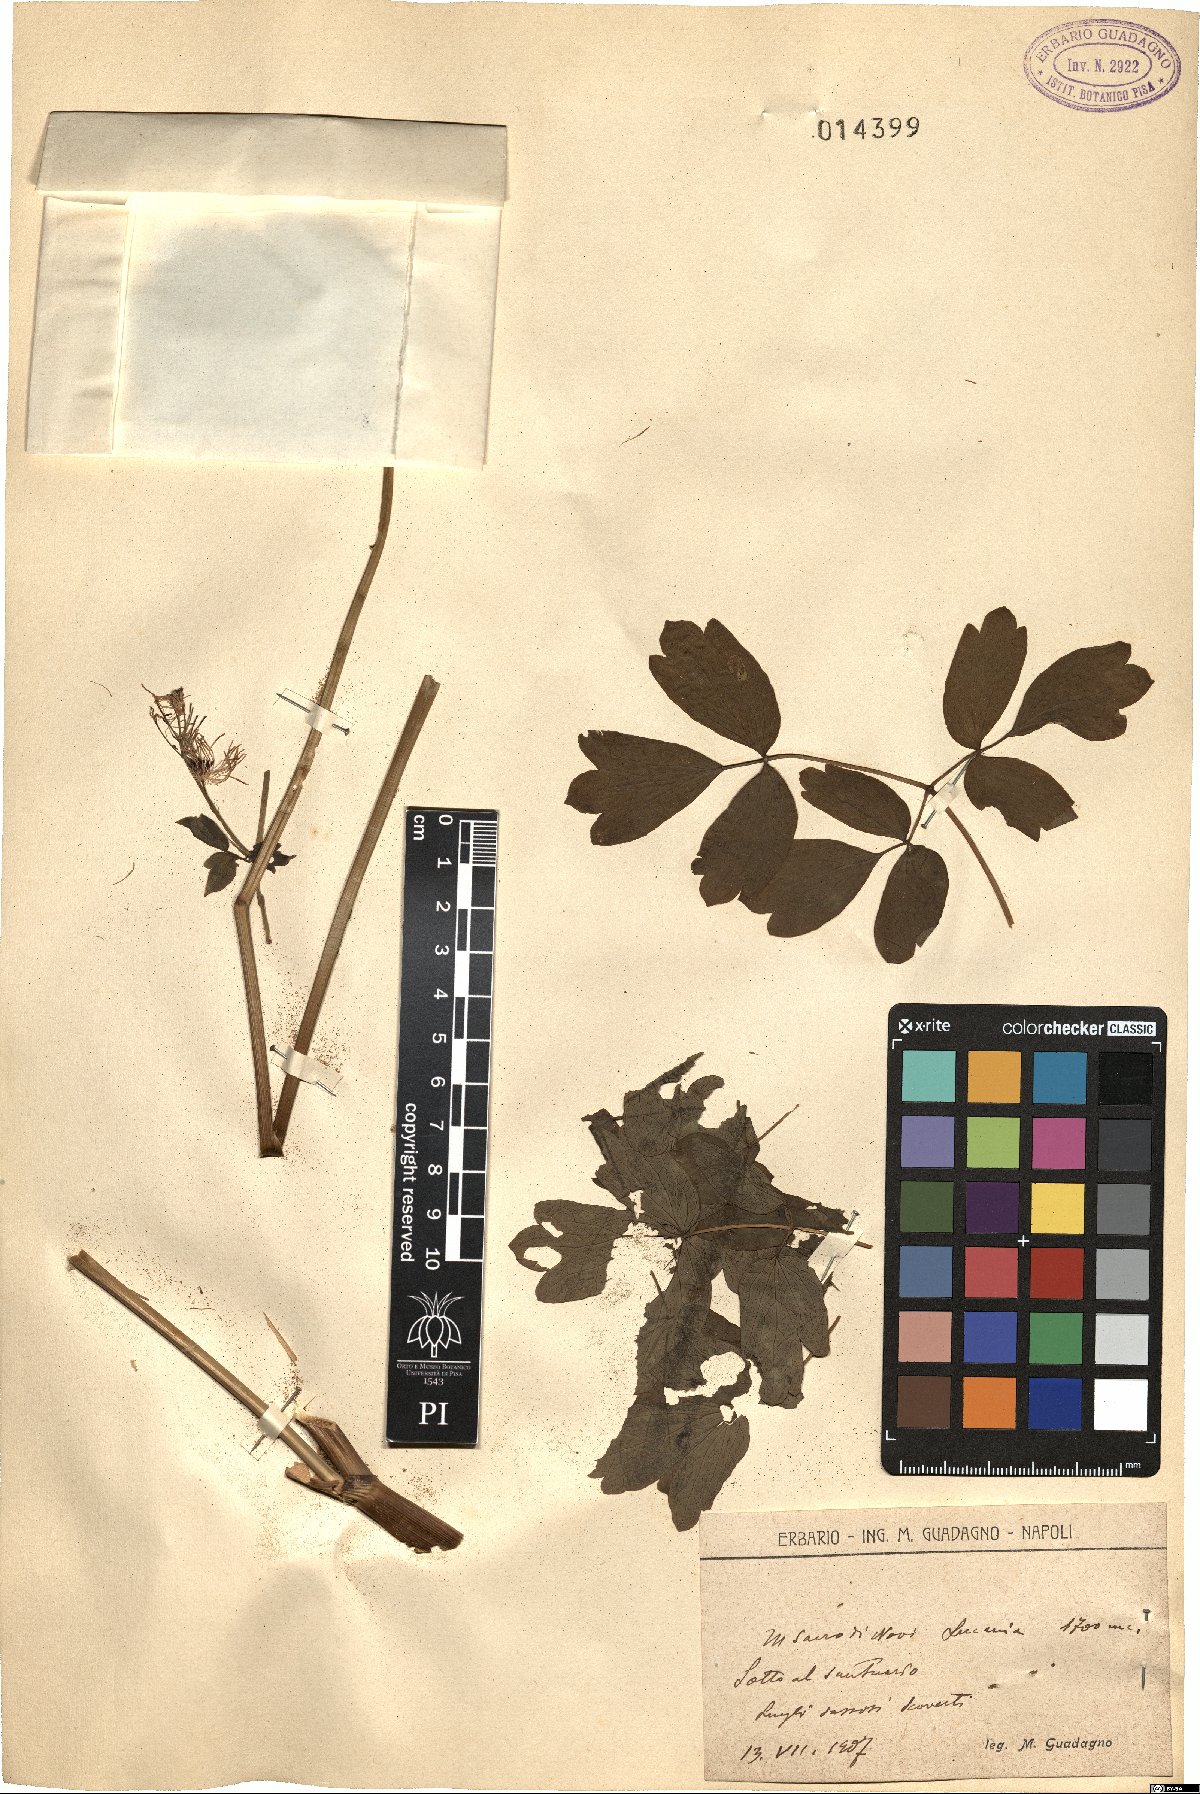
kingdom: Plantae
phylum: Tracheophyta
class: Magnoliopsida
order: Ranunculales
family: Ranunculaceae
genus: Thalictrum
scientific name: Thalictrum
